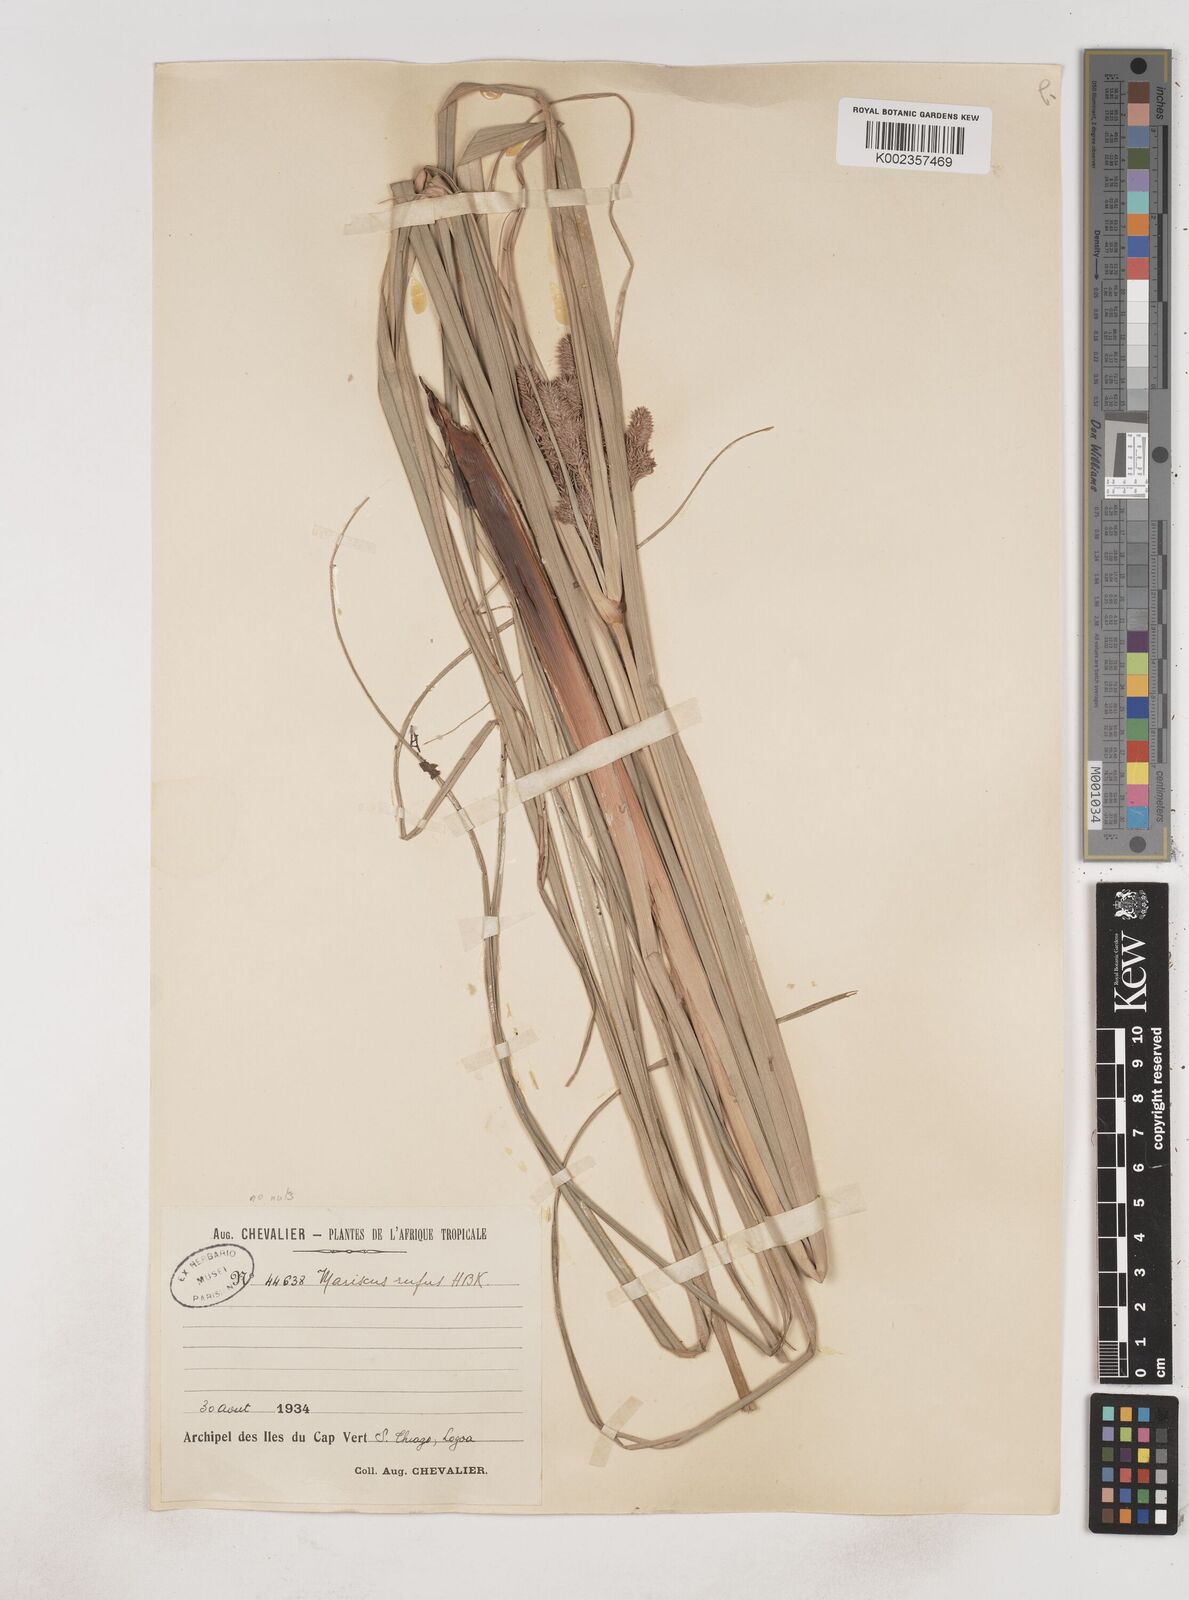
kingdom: Plantae
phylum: Tracheophyta
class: Liliopsida
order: Poales
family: Cyperaceae
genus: Cyperus
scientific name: Cyperus ligularis
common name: Swamp flat sedge
